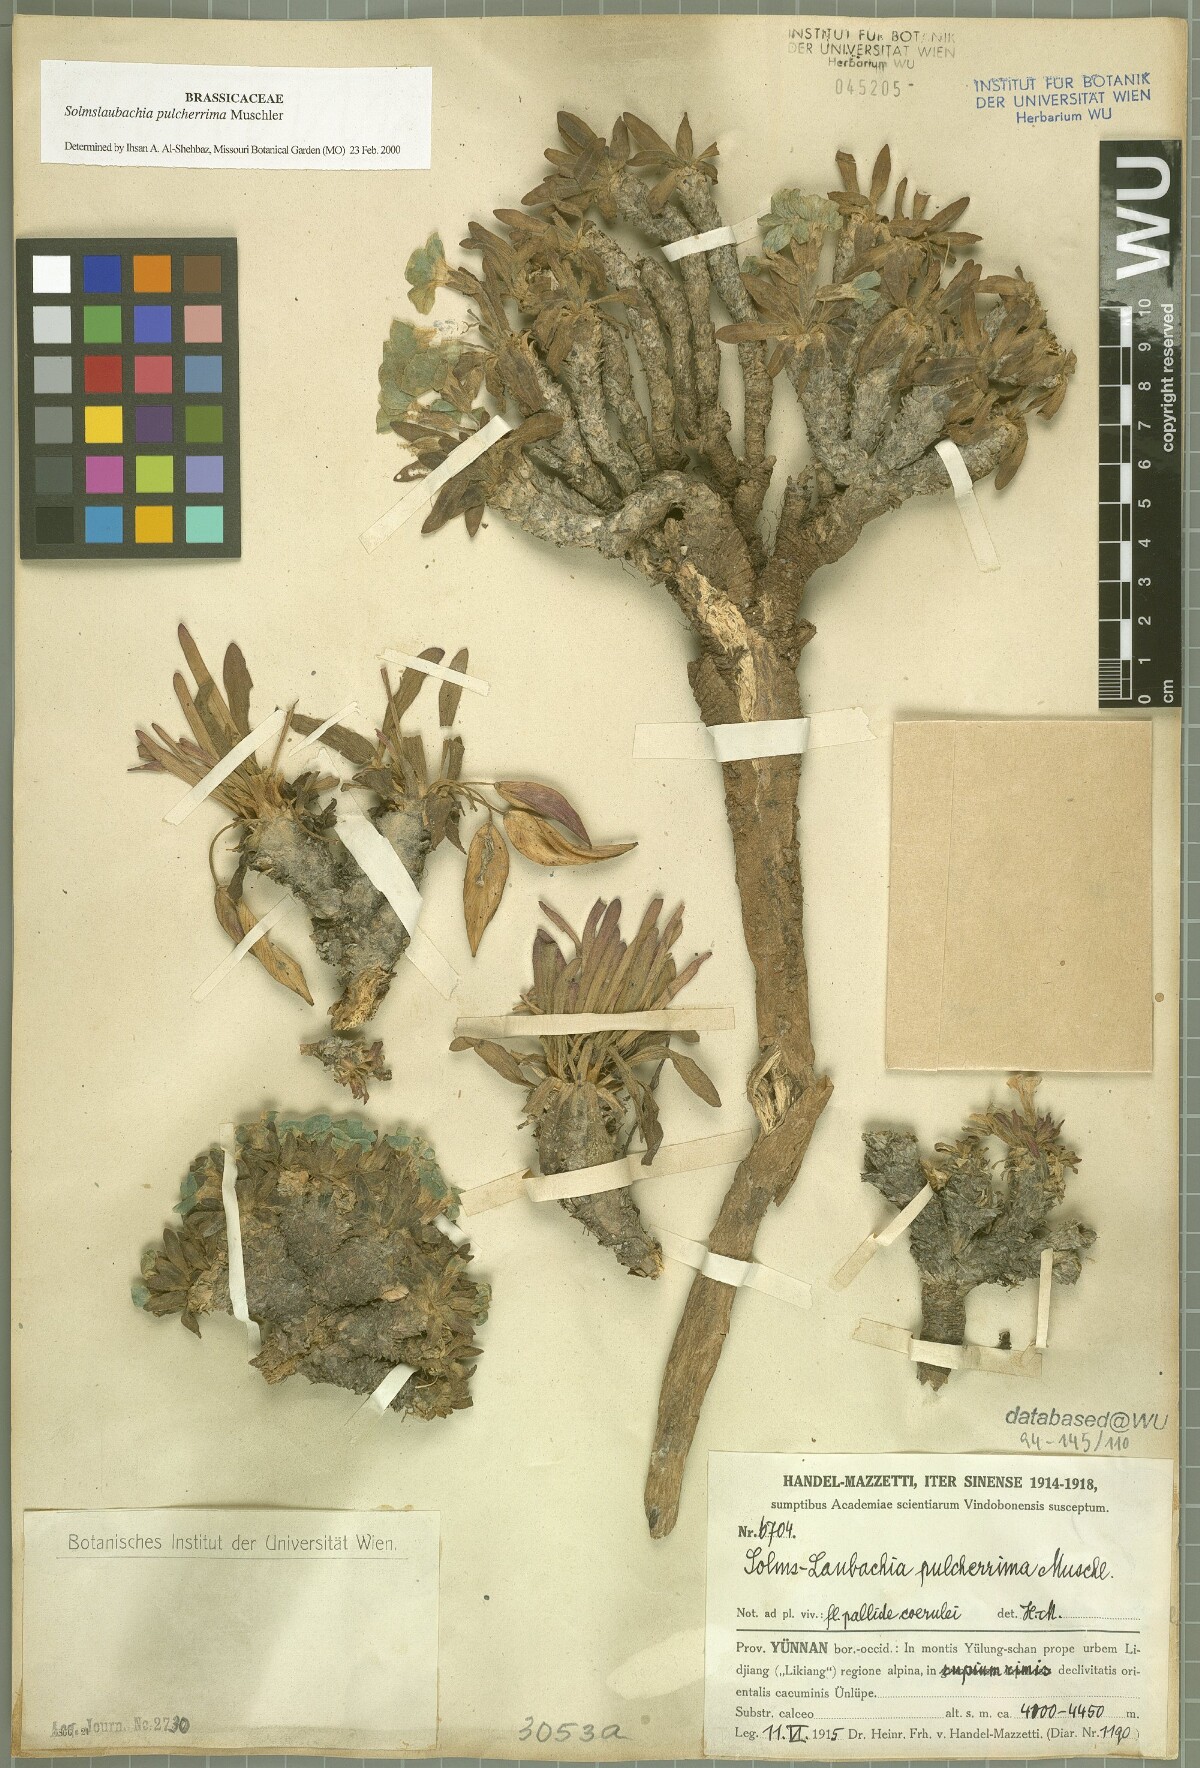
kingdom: Plantae
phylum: Tracheophyta
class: Magnoliopsida
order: Brassicales
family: Brassicaceae
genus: Solms-Laubachia
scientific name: Solms-Laubachia pulcherrima
